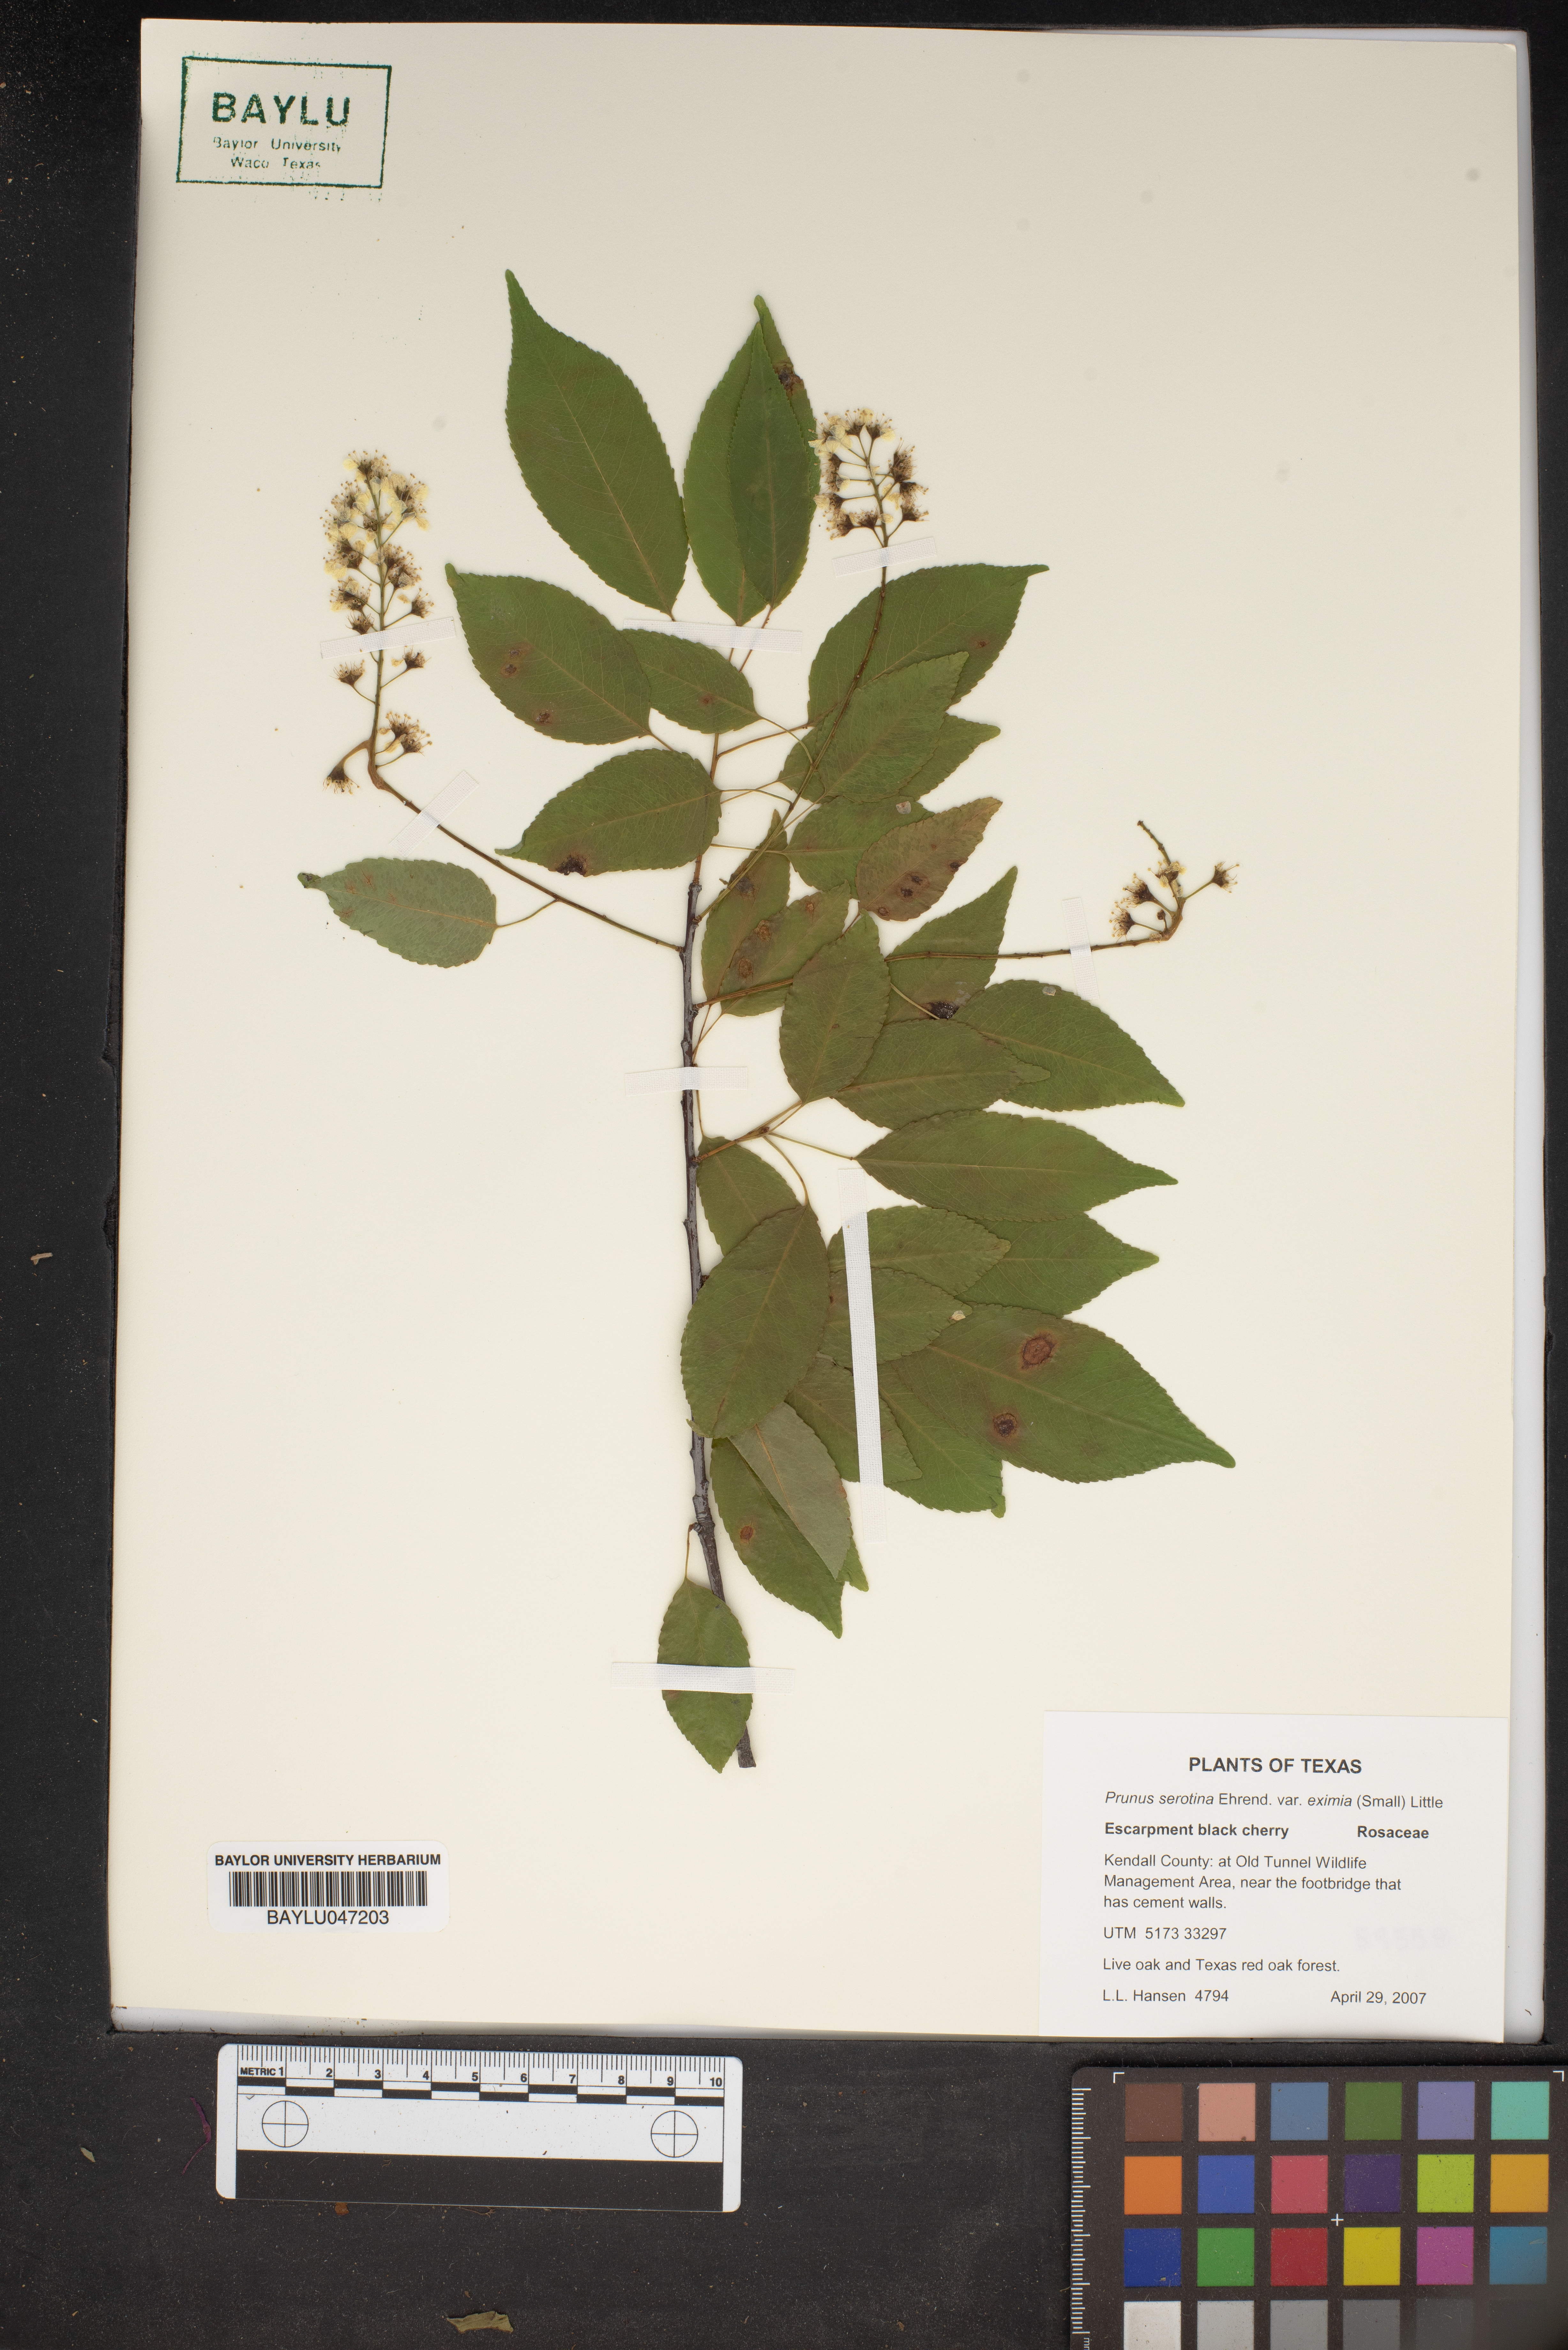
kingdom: Plantae
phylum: Tracheophyta
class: Magnoliopsida
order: Rosales
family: Rosaceae
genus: Prunus
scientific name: Prunus serotina
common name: Black cherry
